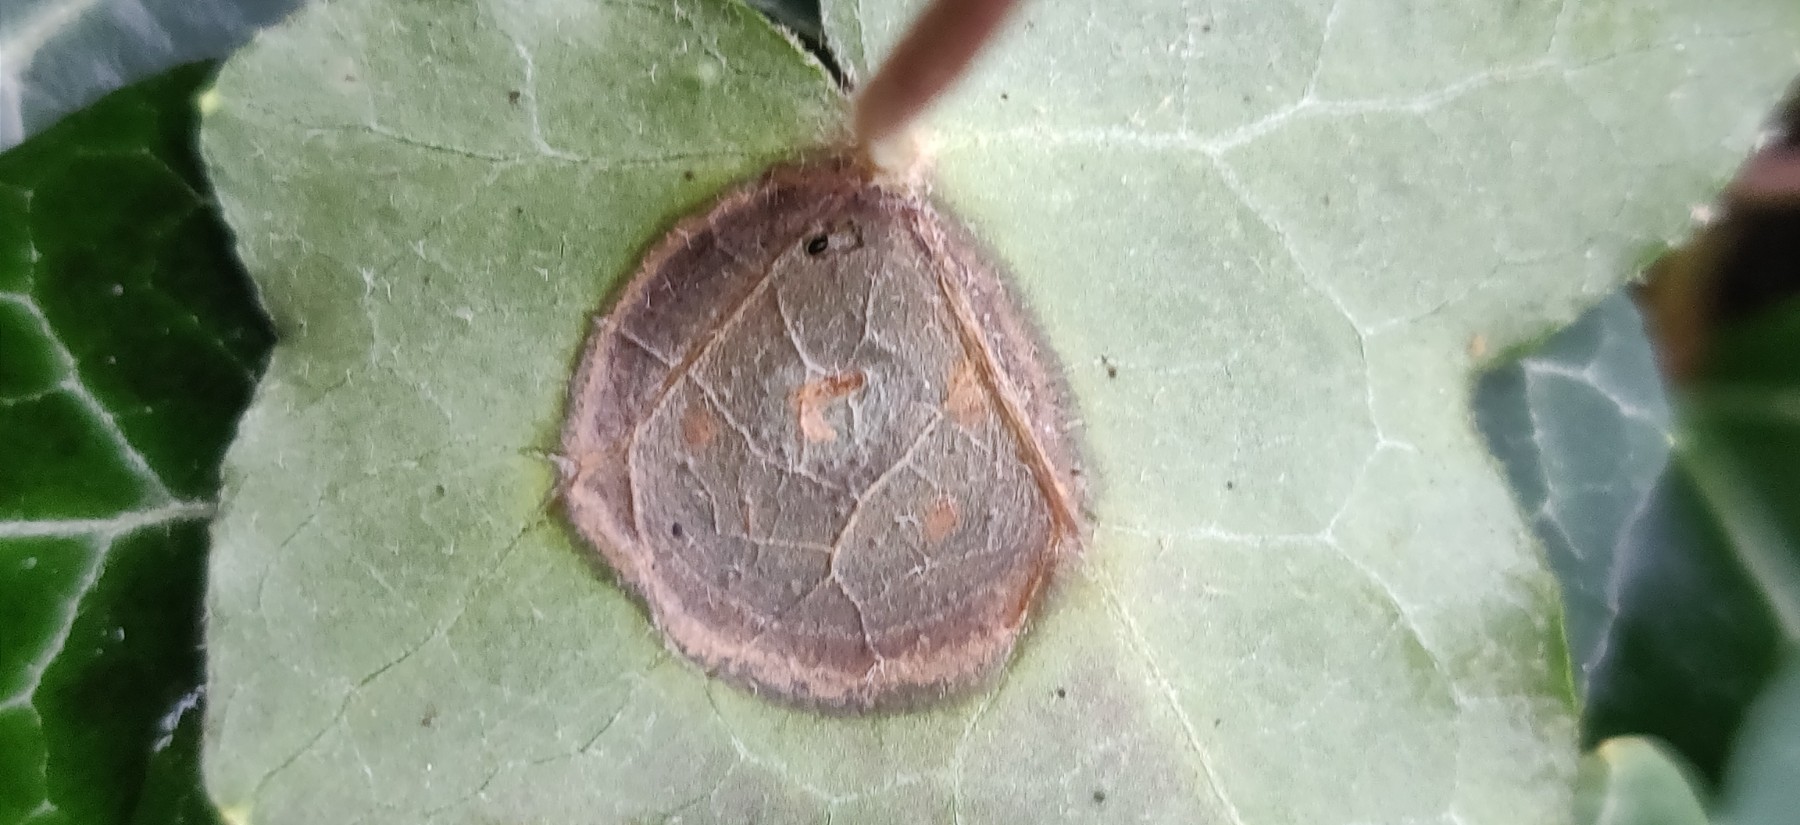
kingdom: Fungi
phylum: Ascomycota
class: Dothideomycetes
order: Pleosporales
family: Didymellaceae
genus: Boeremia
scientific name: Boeremia hedericola
